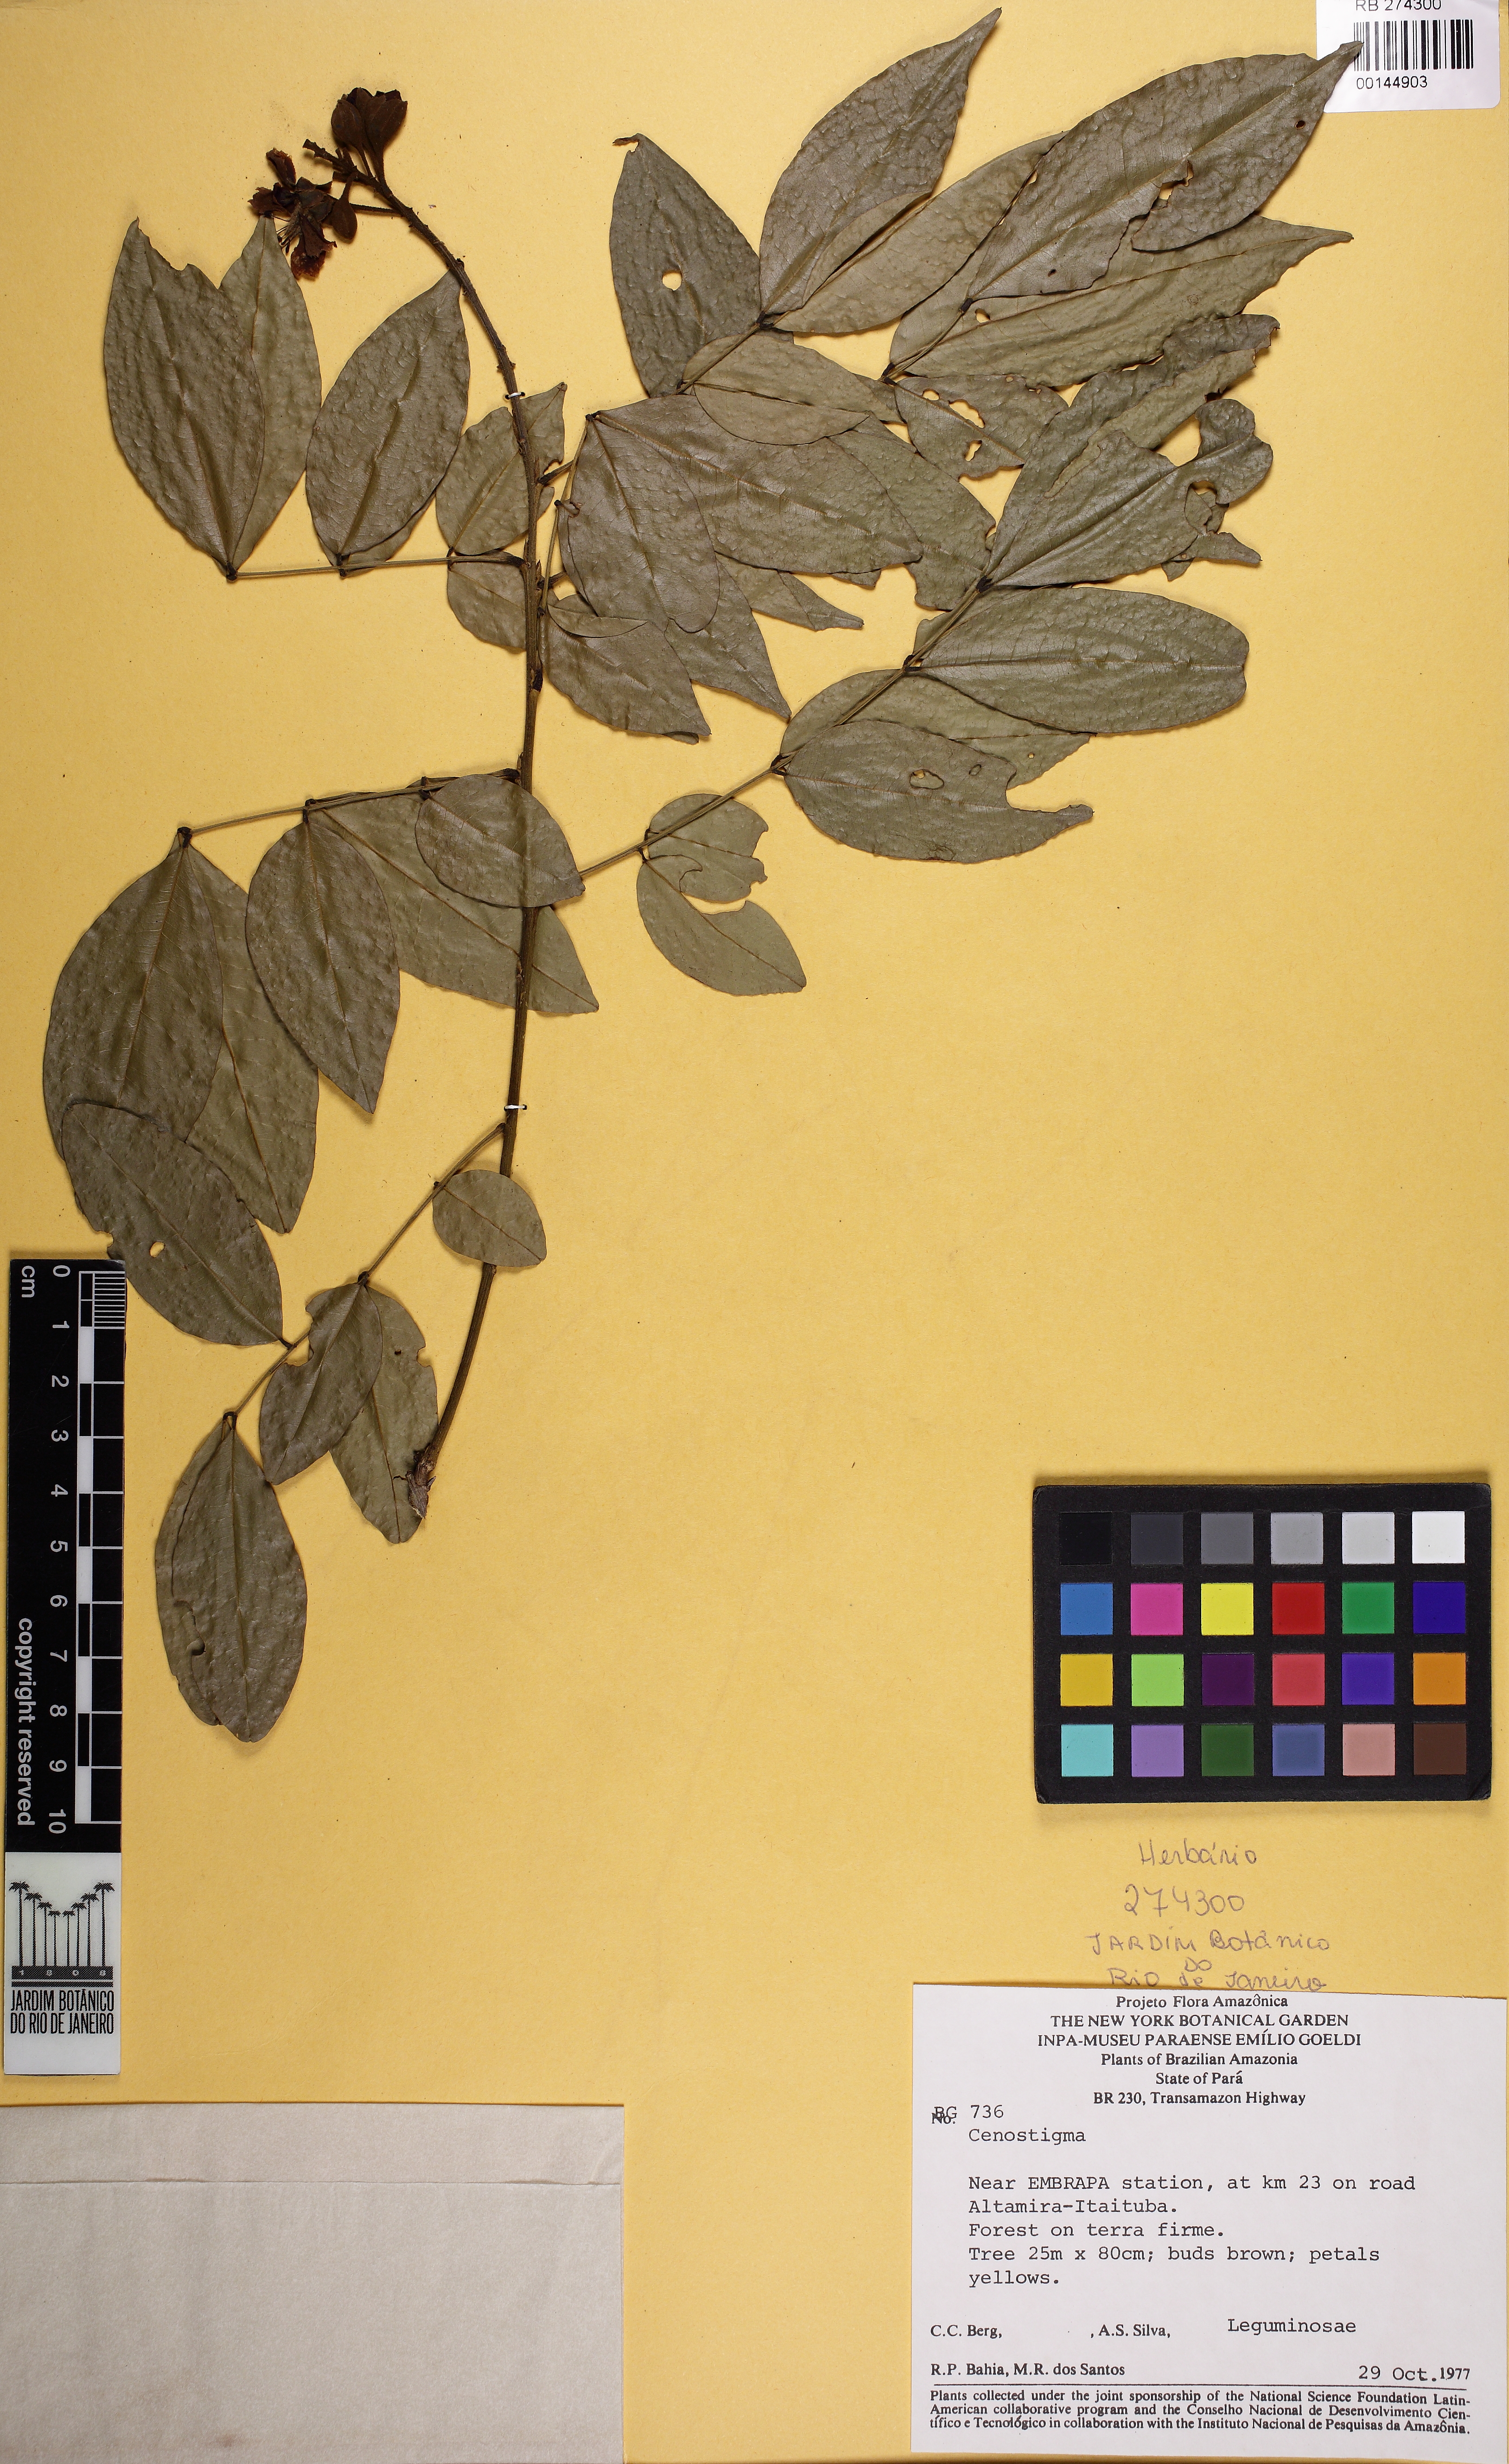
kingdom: Plantae
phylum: Tracheophyta
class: Magnoliopsida
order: Fabales
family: Fabaceae
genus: Cenostigma
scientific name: Cenostigma
